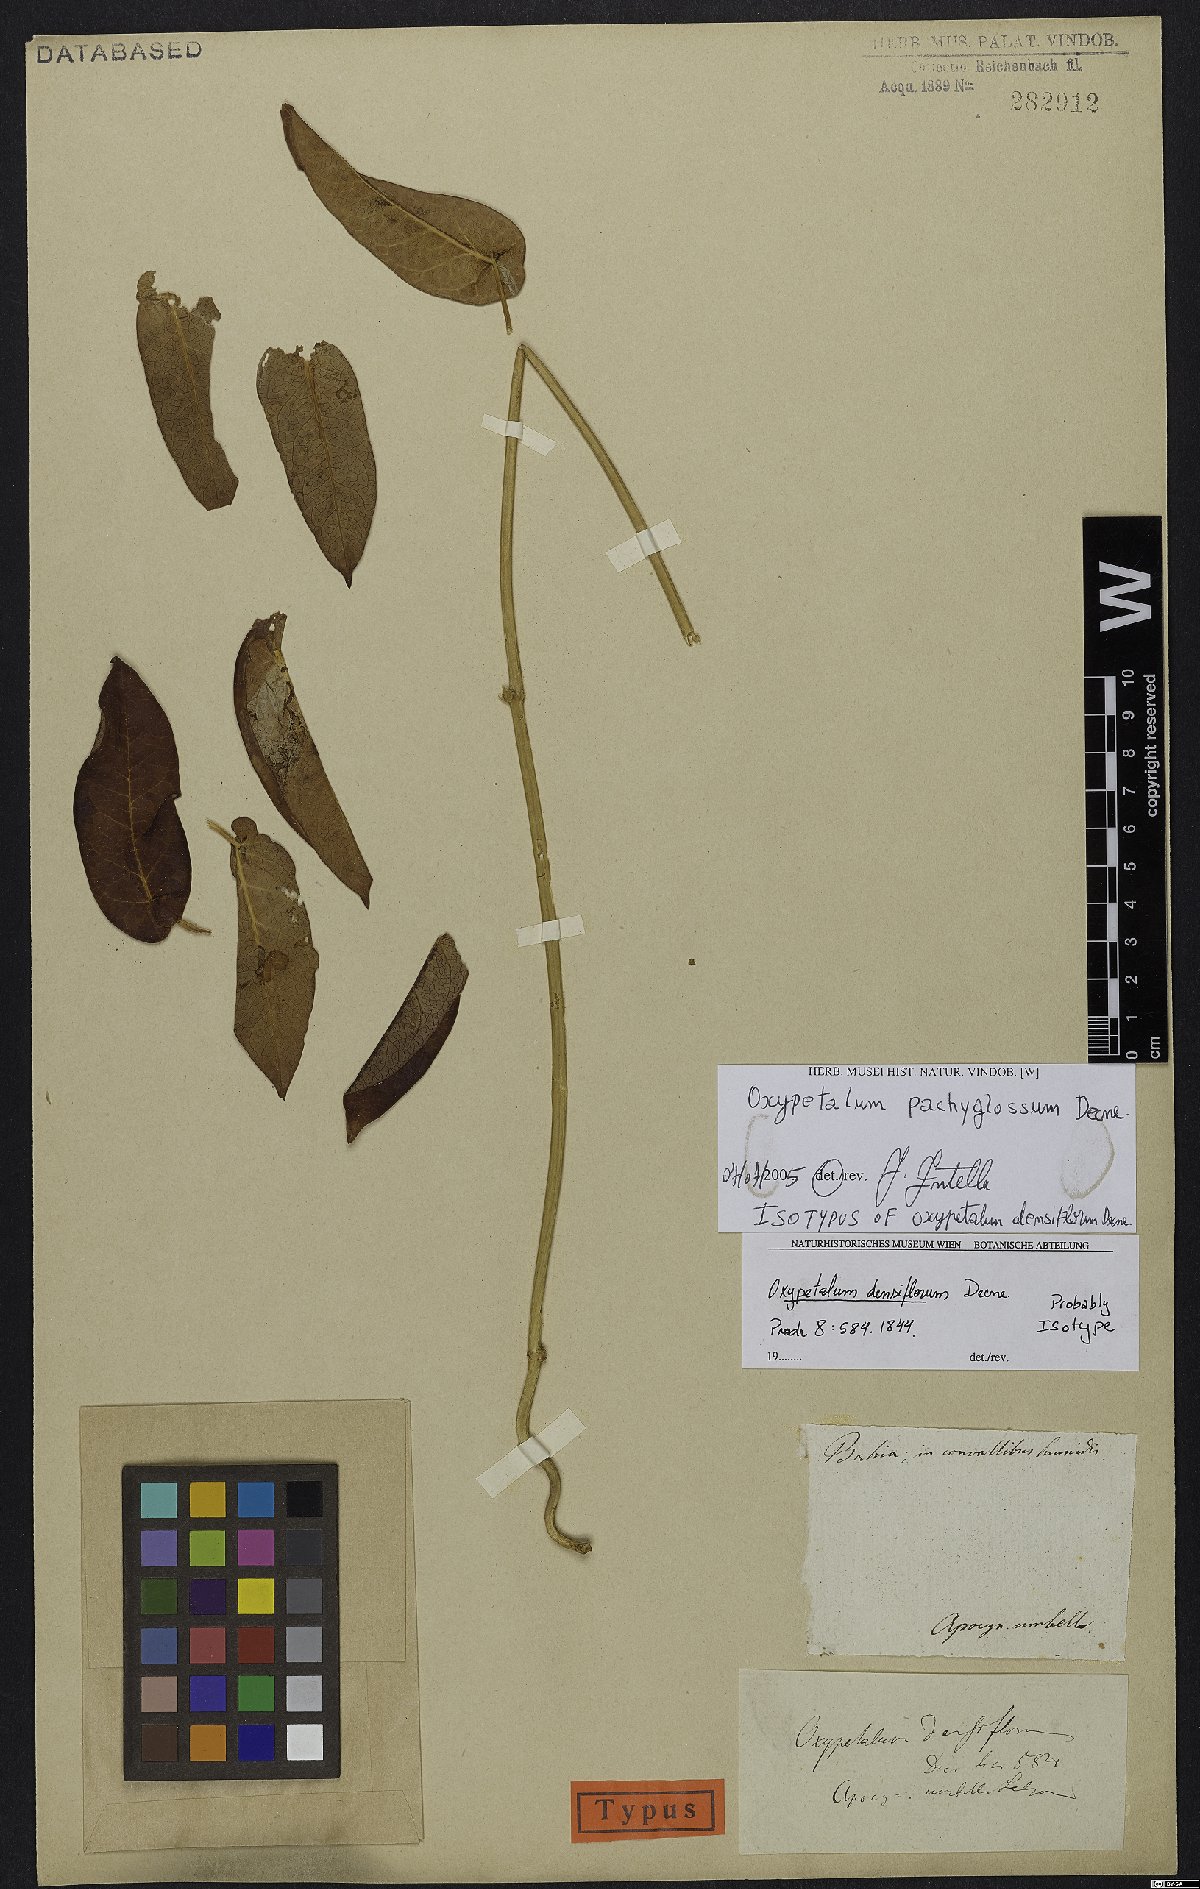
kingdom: Plantae
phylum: Tracheophyta
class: Magnoliopsida
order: Gentianales
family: Apocynaceae
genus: Oxypetalum
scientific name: Oxypetalum pachyglossum
